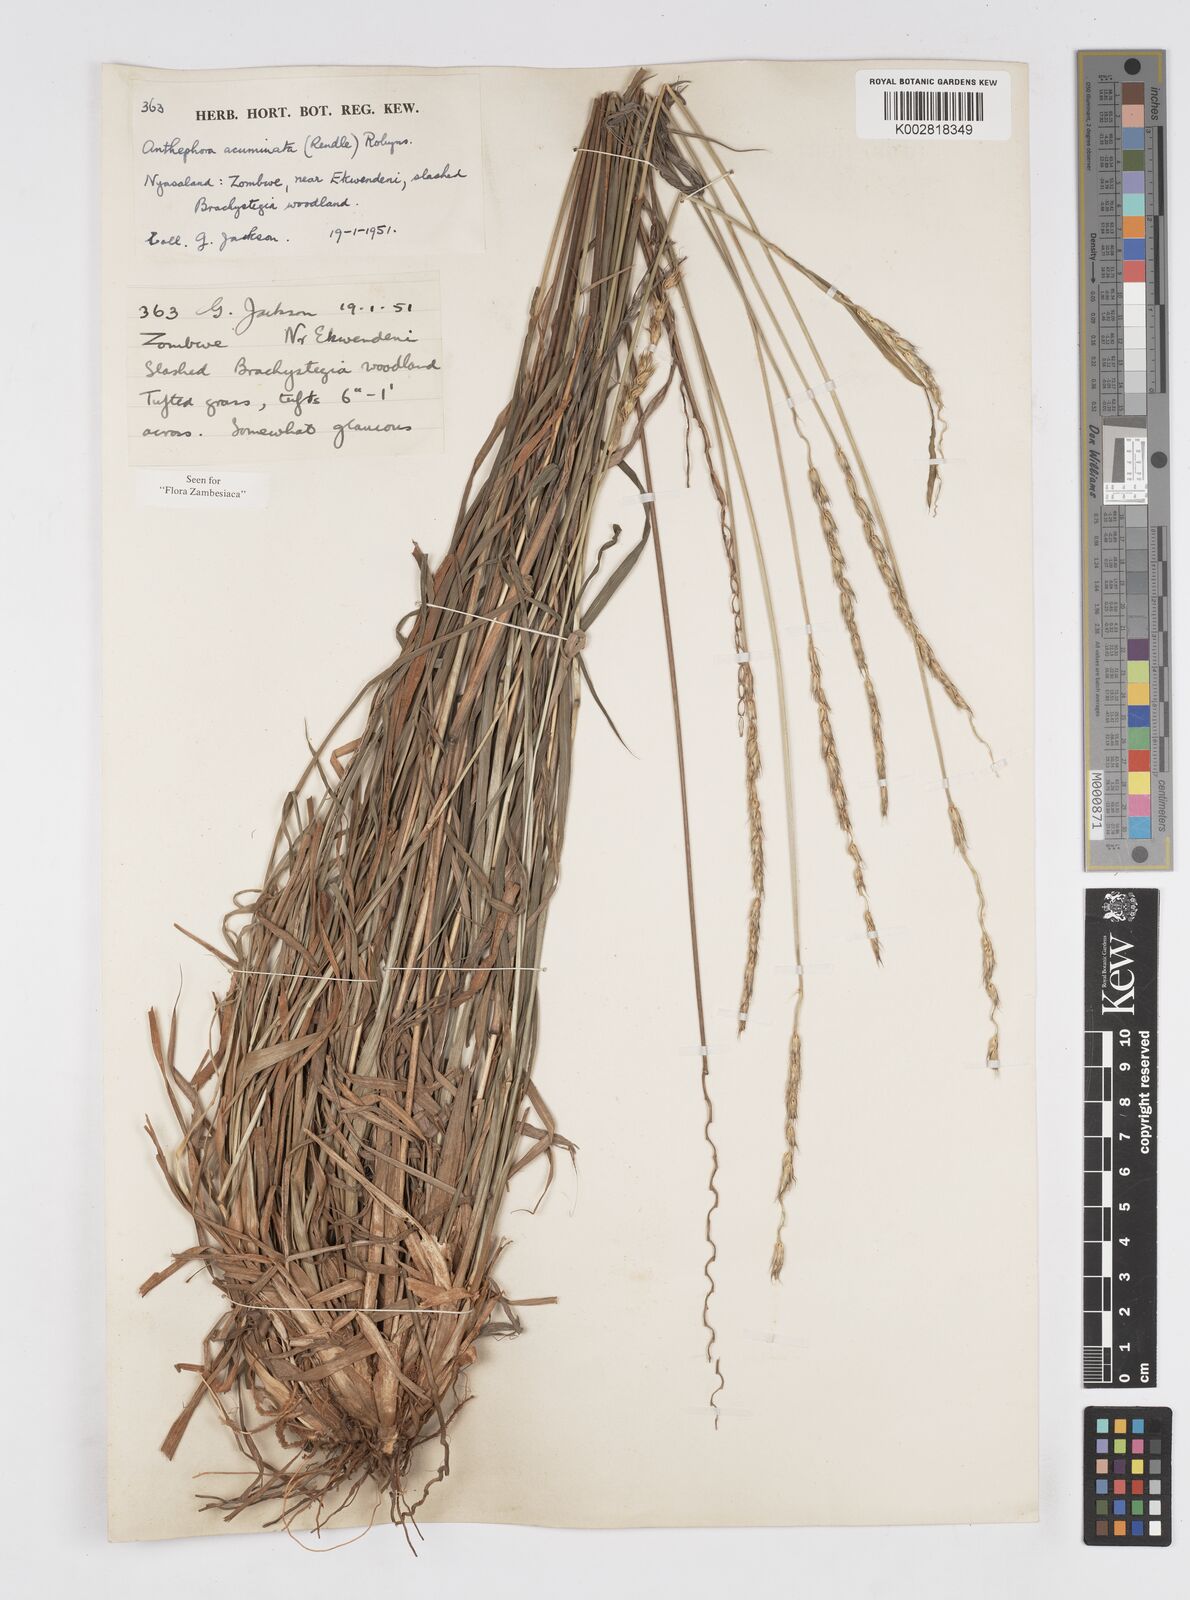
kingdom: Plantae
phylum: Tracheophyta
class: Liliopsida
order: Poales
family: Poaceae
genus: Anthephora
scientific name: Anthephora elongata
